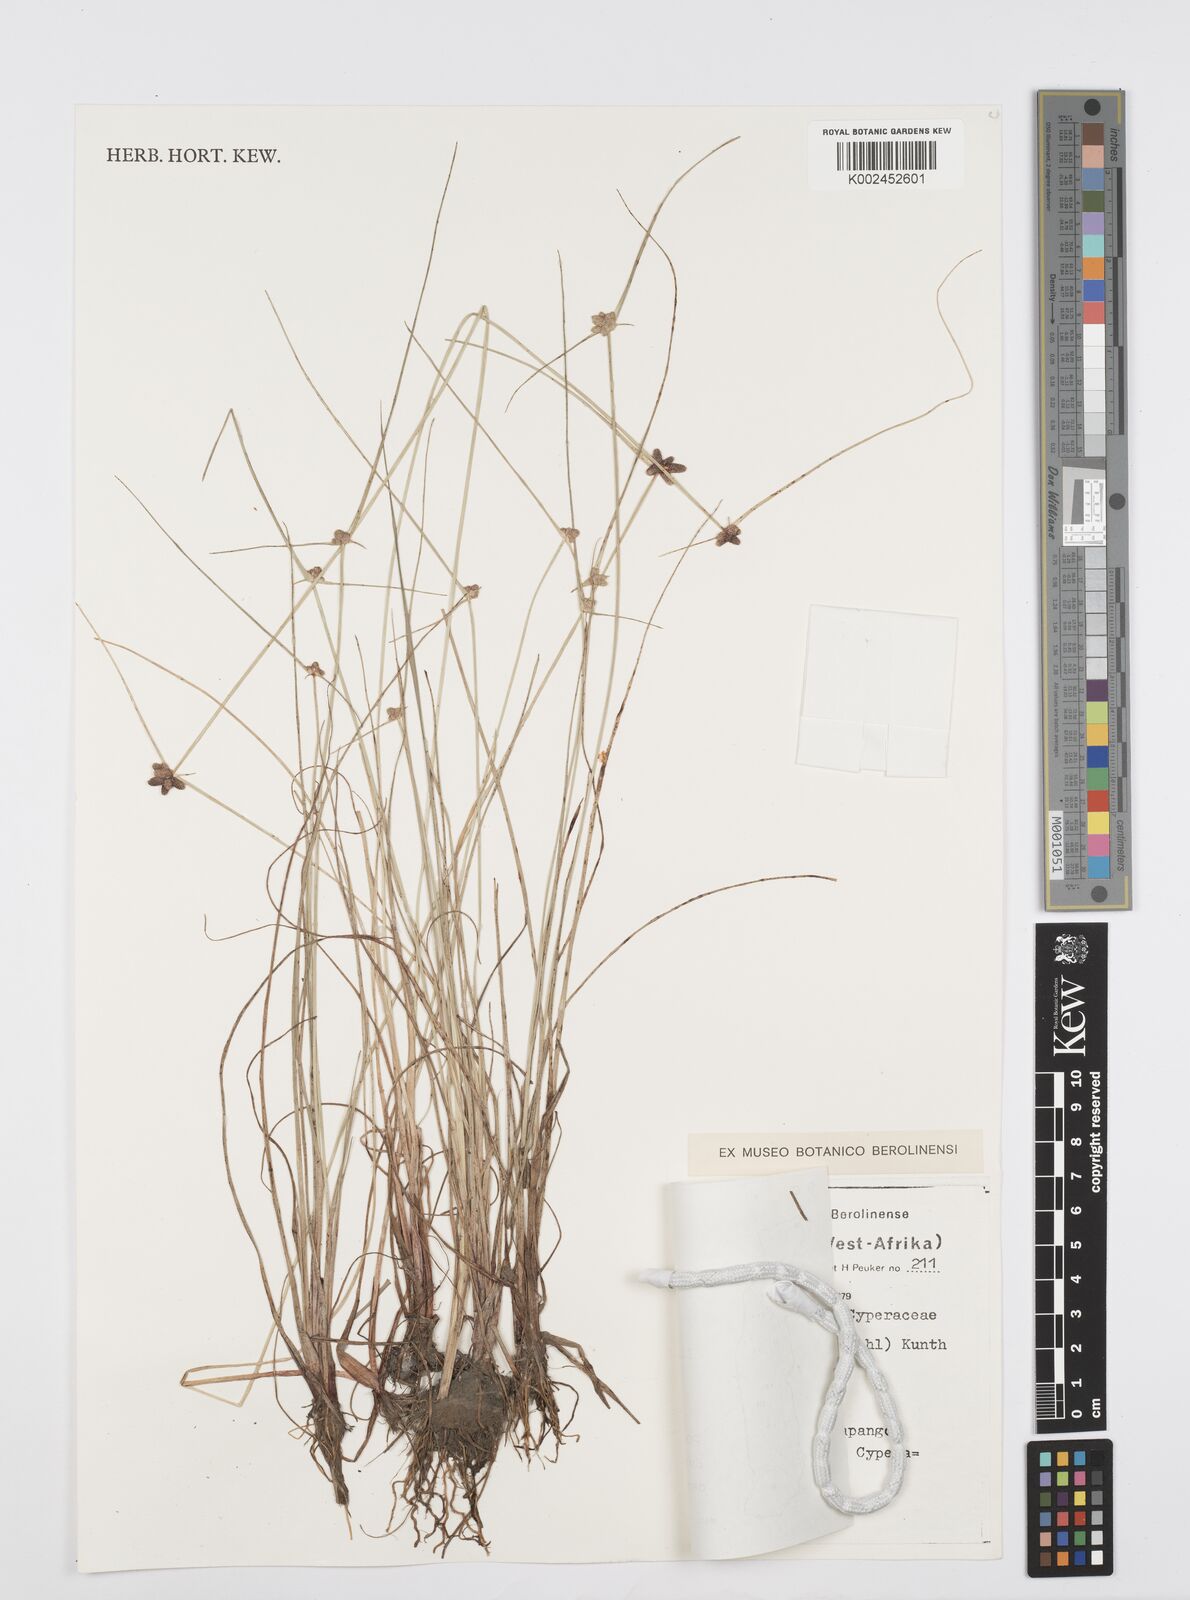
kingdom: Plantae
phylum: Tracheophyta
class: Liliopsida
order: Poales
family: Cyperaceae
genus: Cyperus
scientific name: Cyperus sphacelatus
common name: Roadside flatsedge
